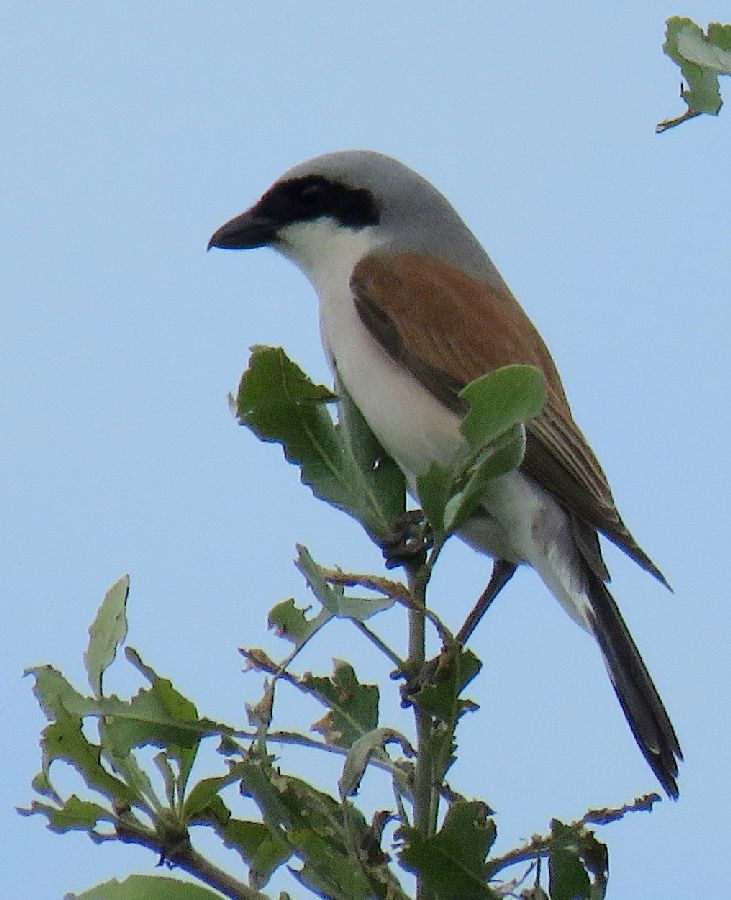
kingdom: Animalia
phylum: Chordata
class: Aves
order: Passeriformes
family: Laniidae
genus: Lanius
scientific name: Lanius collurio
